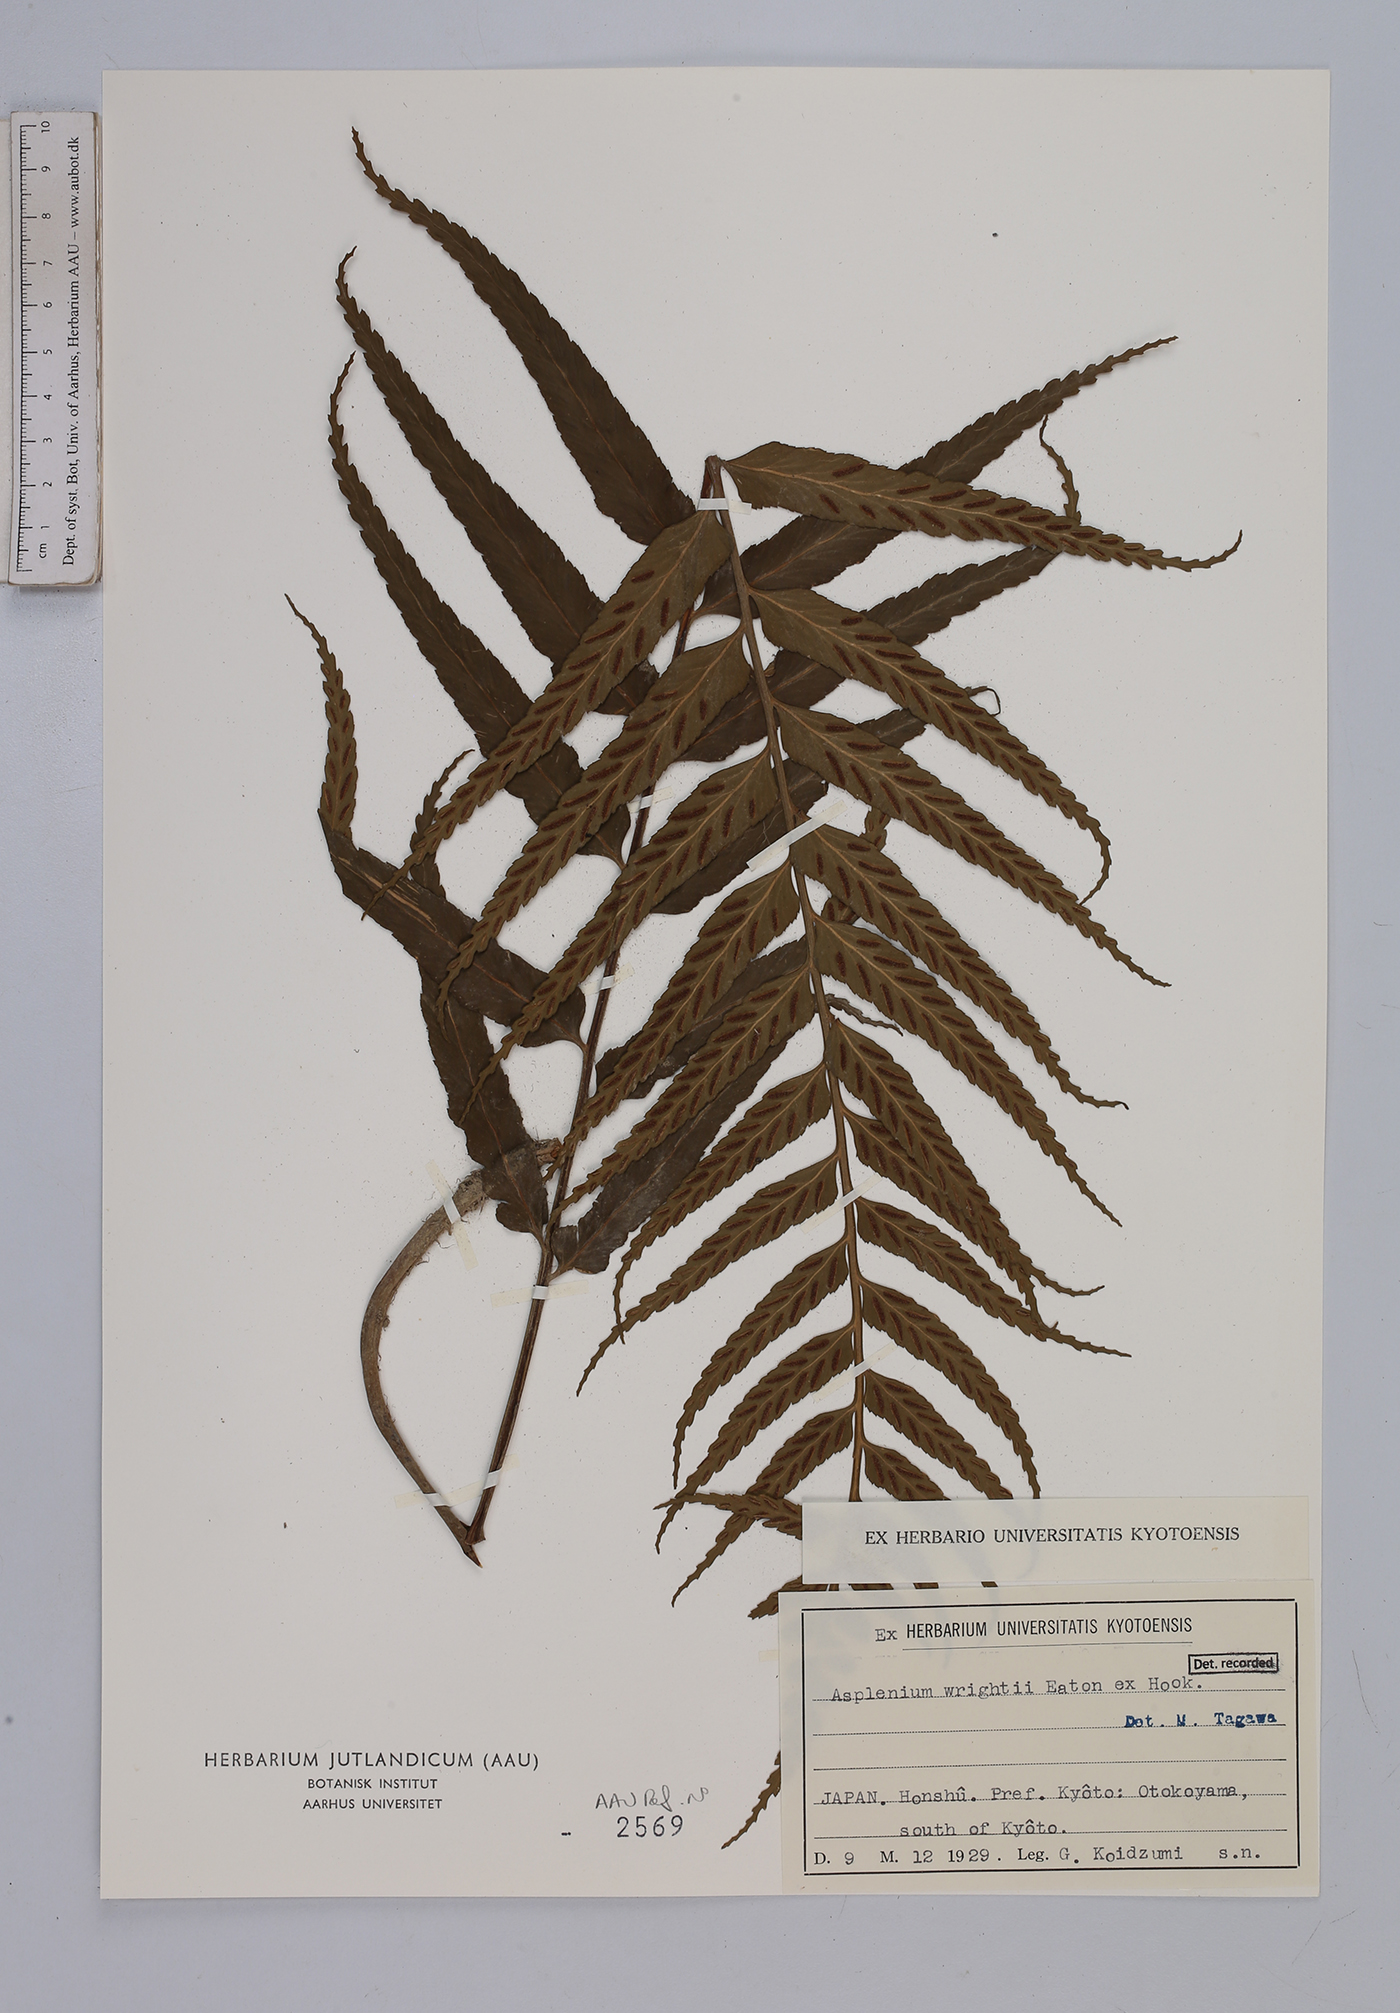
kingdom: Plantae
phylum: Tracheophyta
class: Polypodiopsida
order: Polypodiales
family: Aspleniaceae
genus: Asplenium
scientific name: Asplenium wrightii
